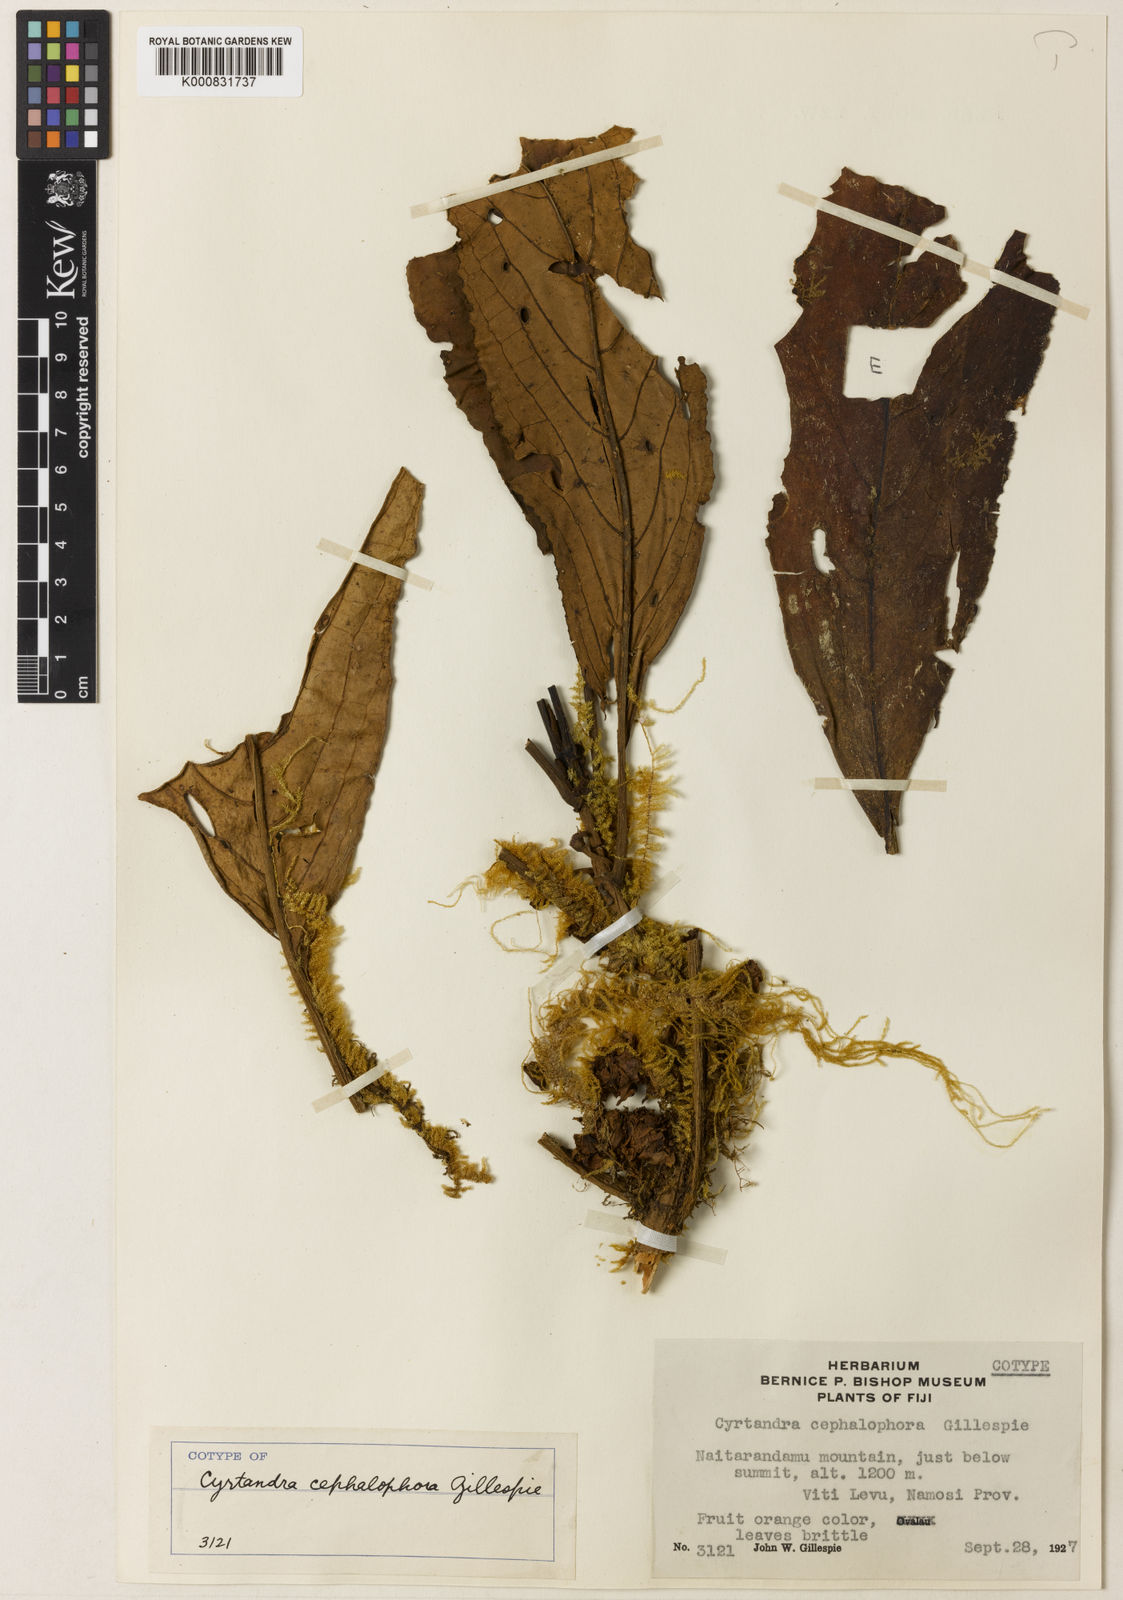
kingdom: Plantae
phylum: Tracheophyta
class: Magnoliopsida
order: Lamiales
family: Gesneriaceae
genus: Cyrtandra
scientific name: Cyrtandra cephalophora
